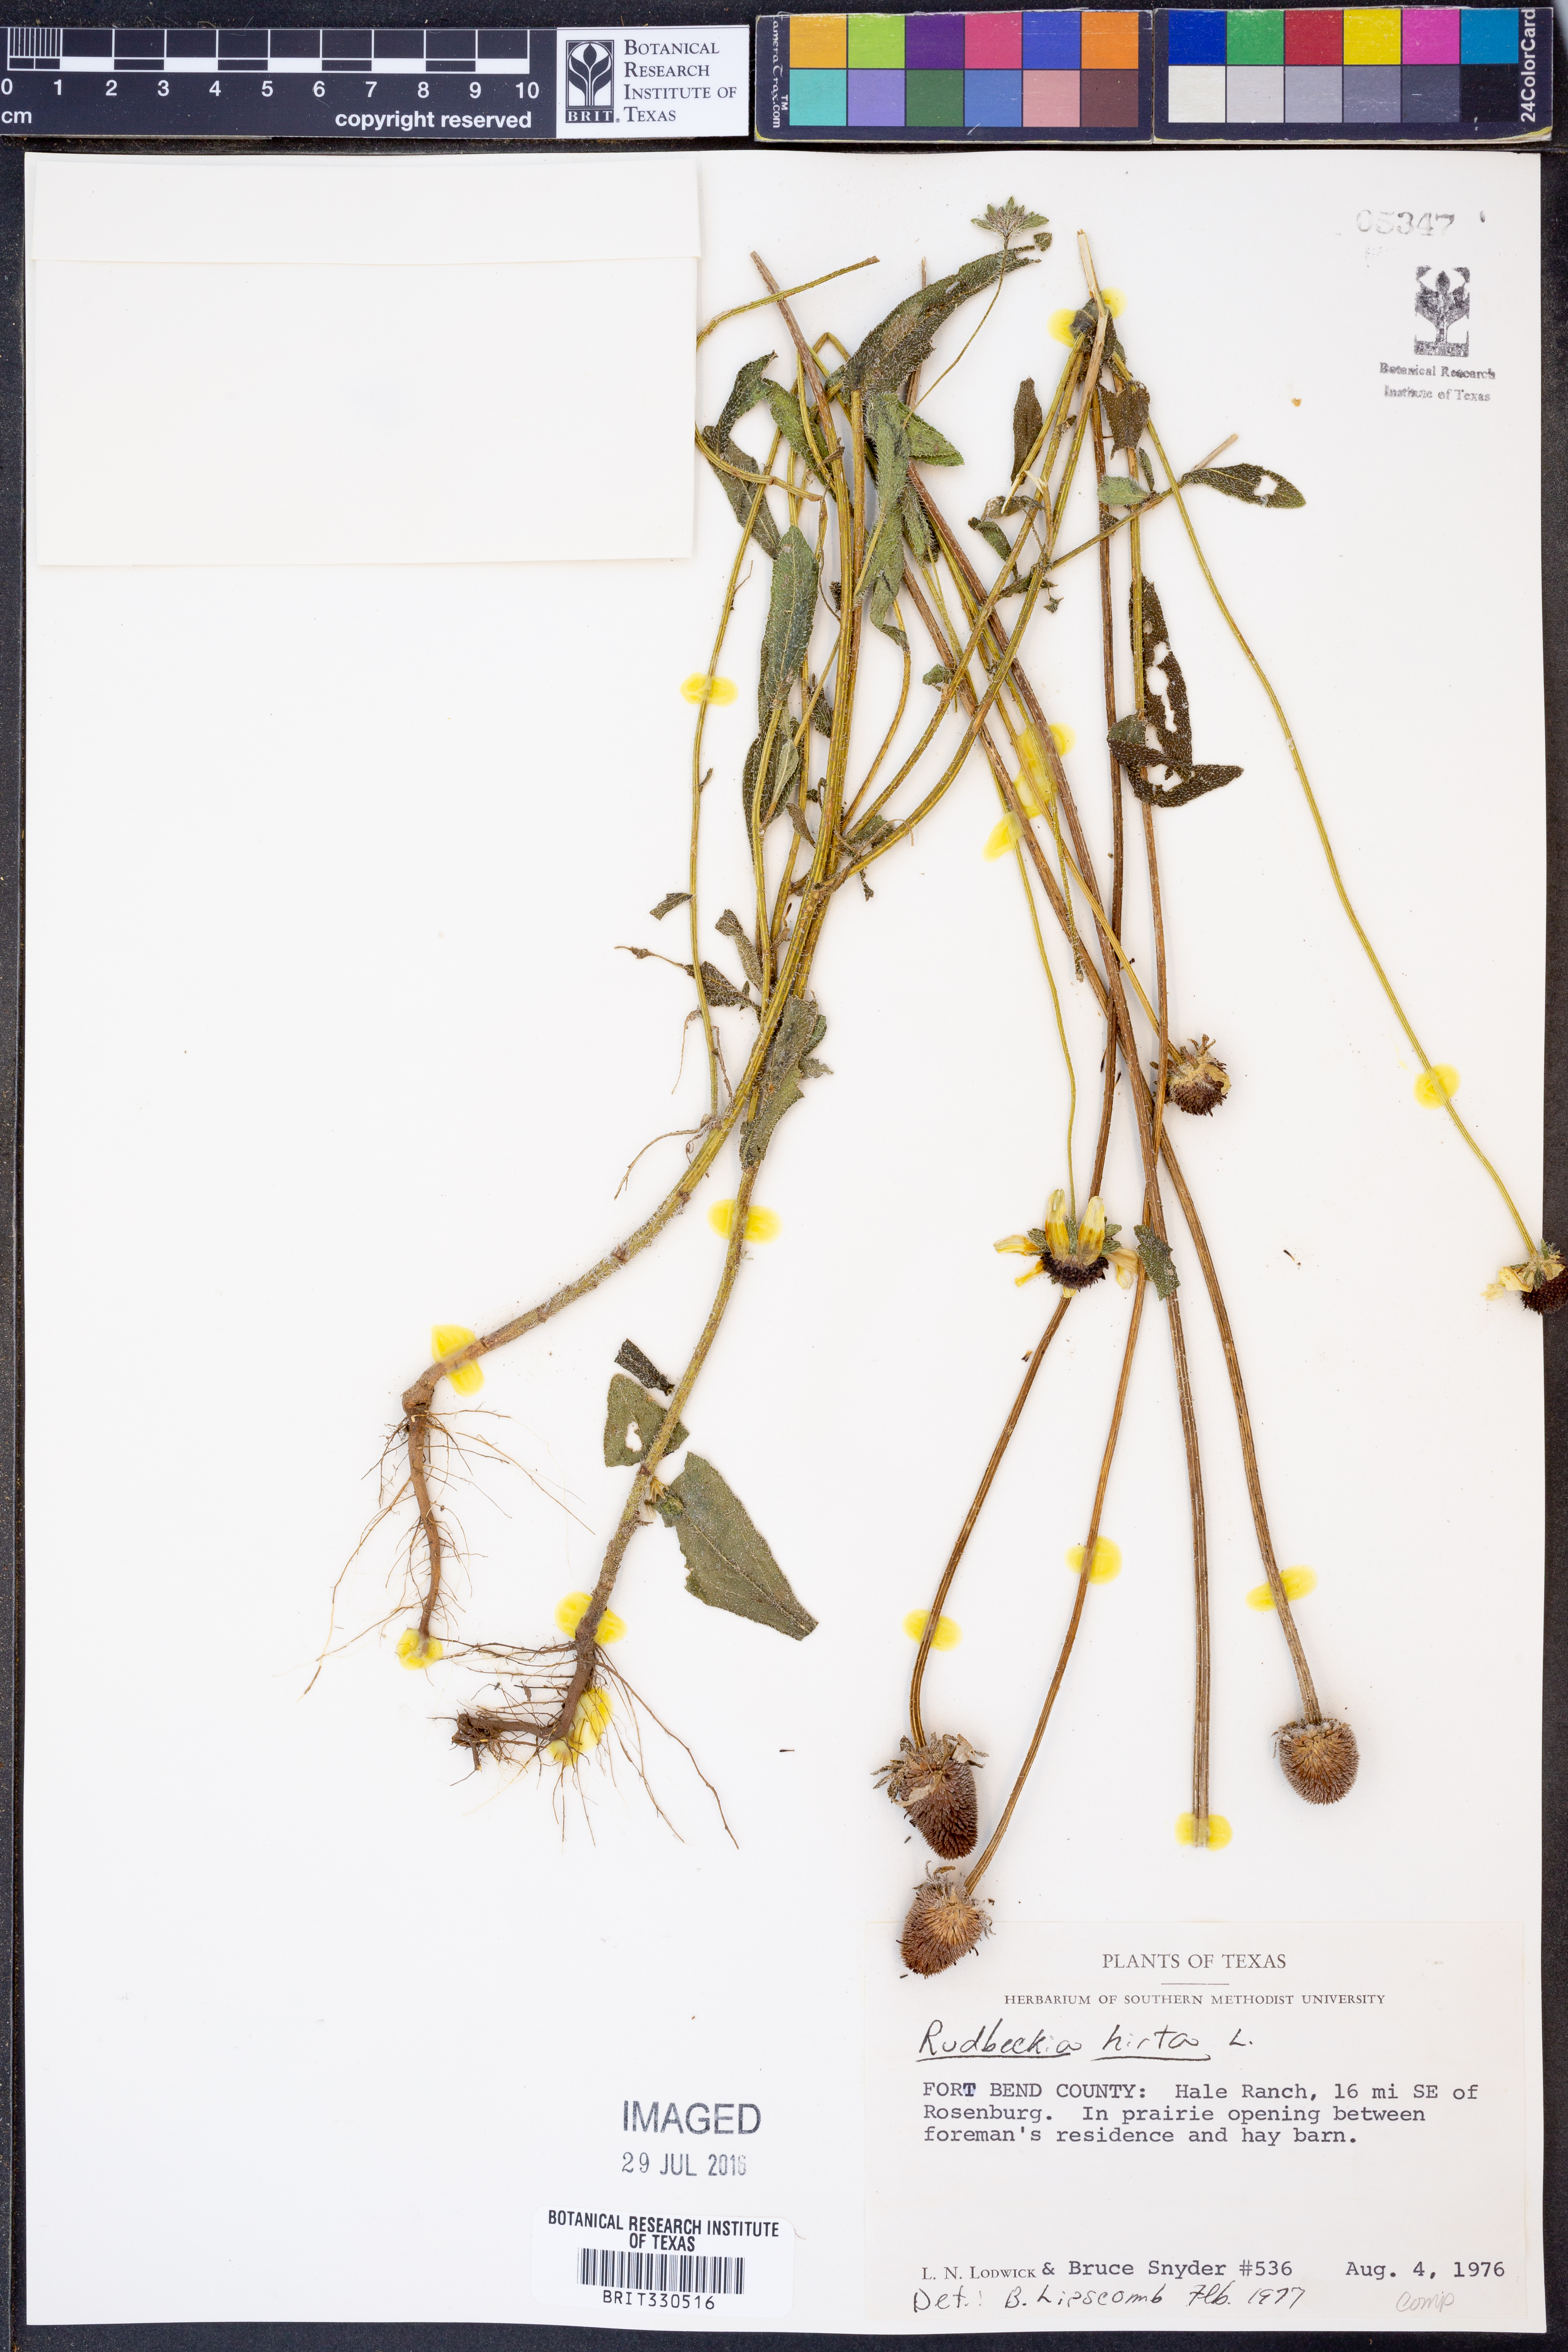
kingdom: Plantae
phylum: Tracheophyta
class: Magnoliopsida
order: Asterales
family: Asteraceae
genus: Rudbeckia
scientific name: Rudbeckia hirta
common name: Black-eyed-susan
